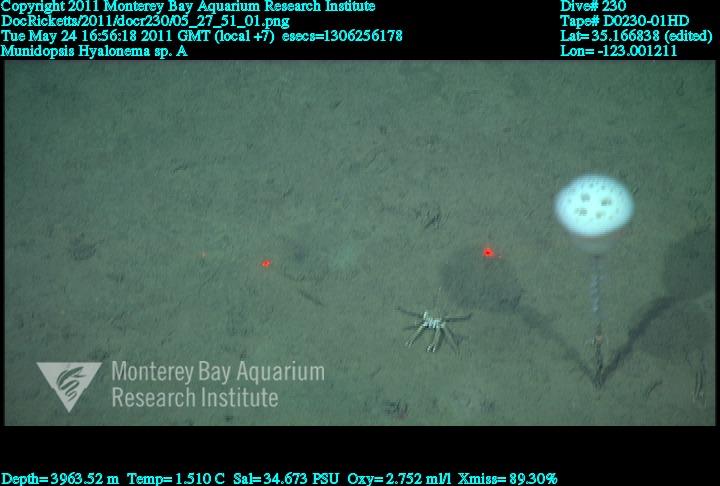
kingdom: Animalia
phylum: Porifera
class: Hexactinellida
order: Amphidiscosida
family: Hyalonematidae
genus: Hyalonema
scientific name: Hyalonema
